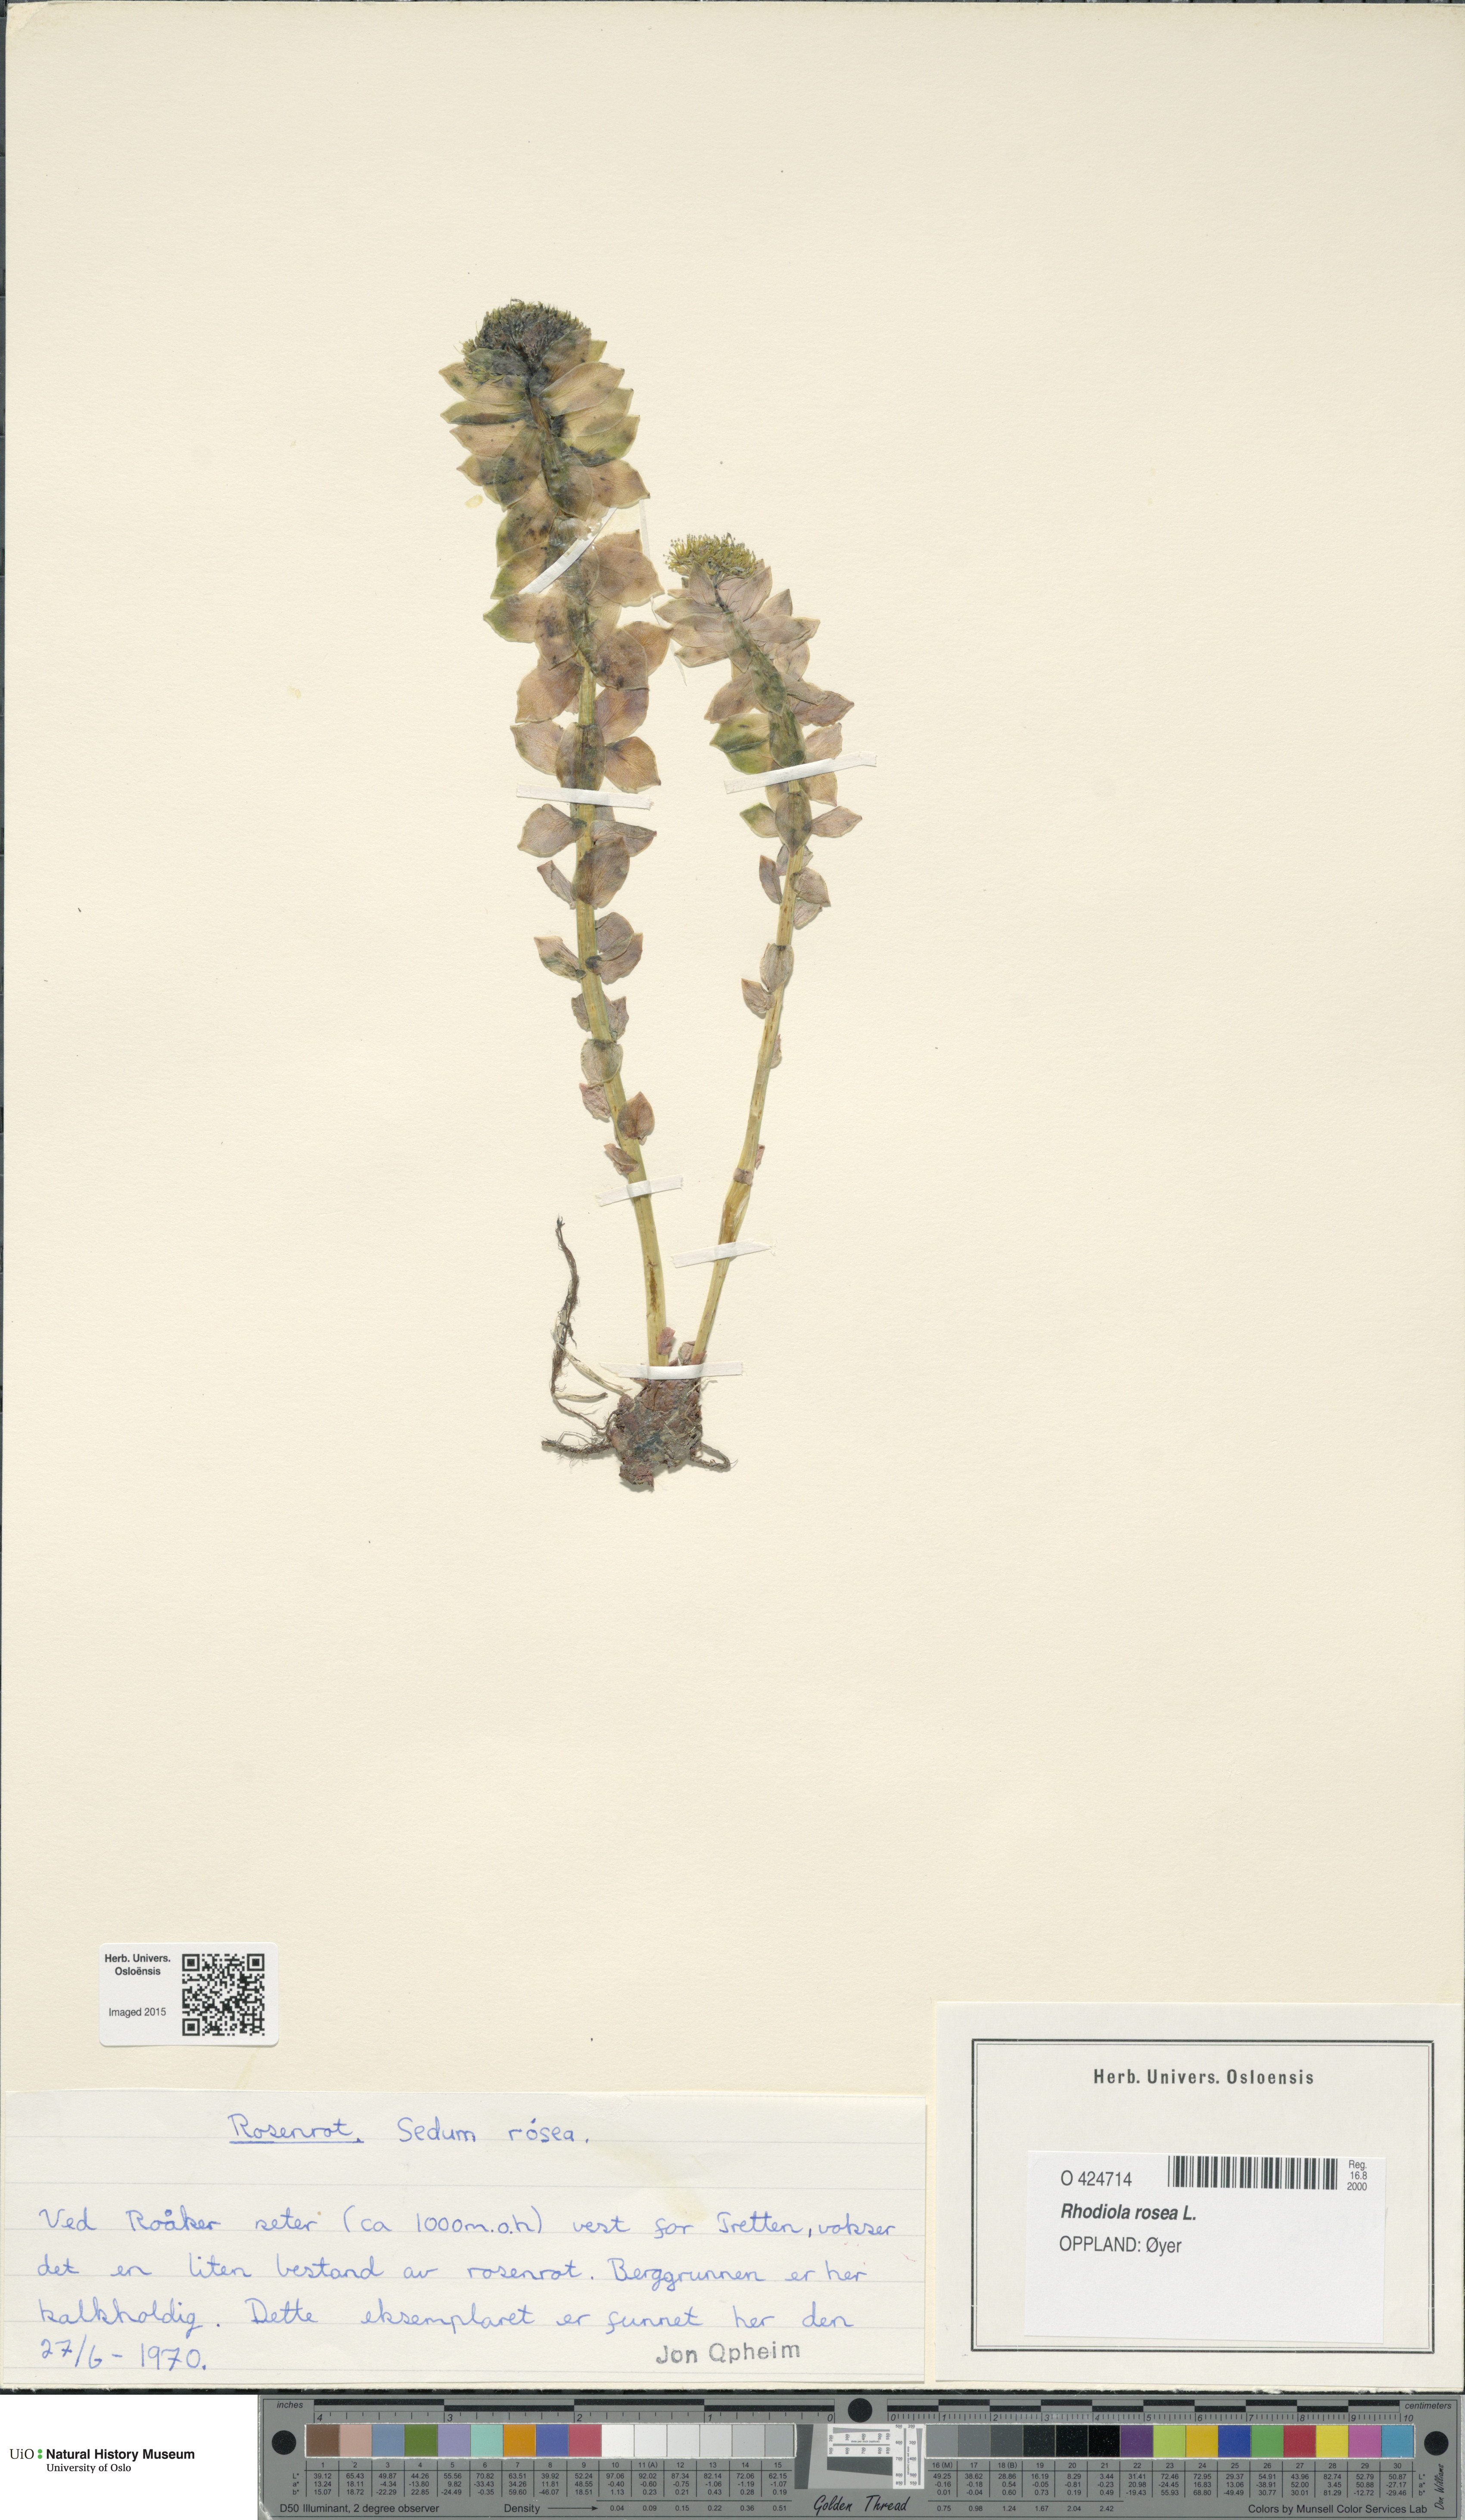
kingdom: Plantae
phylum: Tracheophyta
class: Magnoliopsida
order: Saxifragales
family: Crassulaceae
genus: Rhodiola
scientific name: Rhodiola rosea
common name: Roseroot
